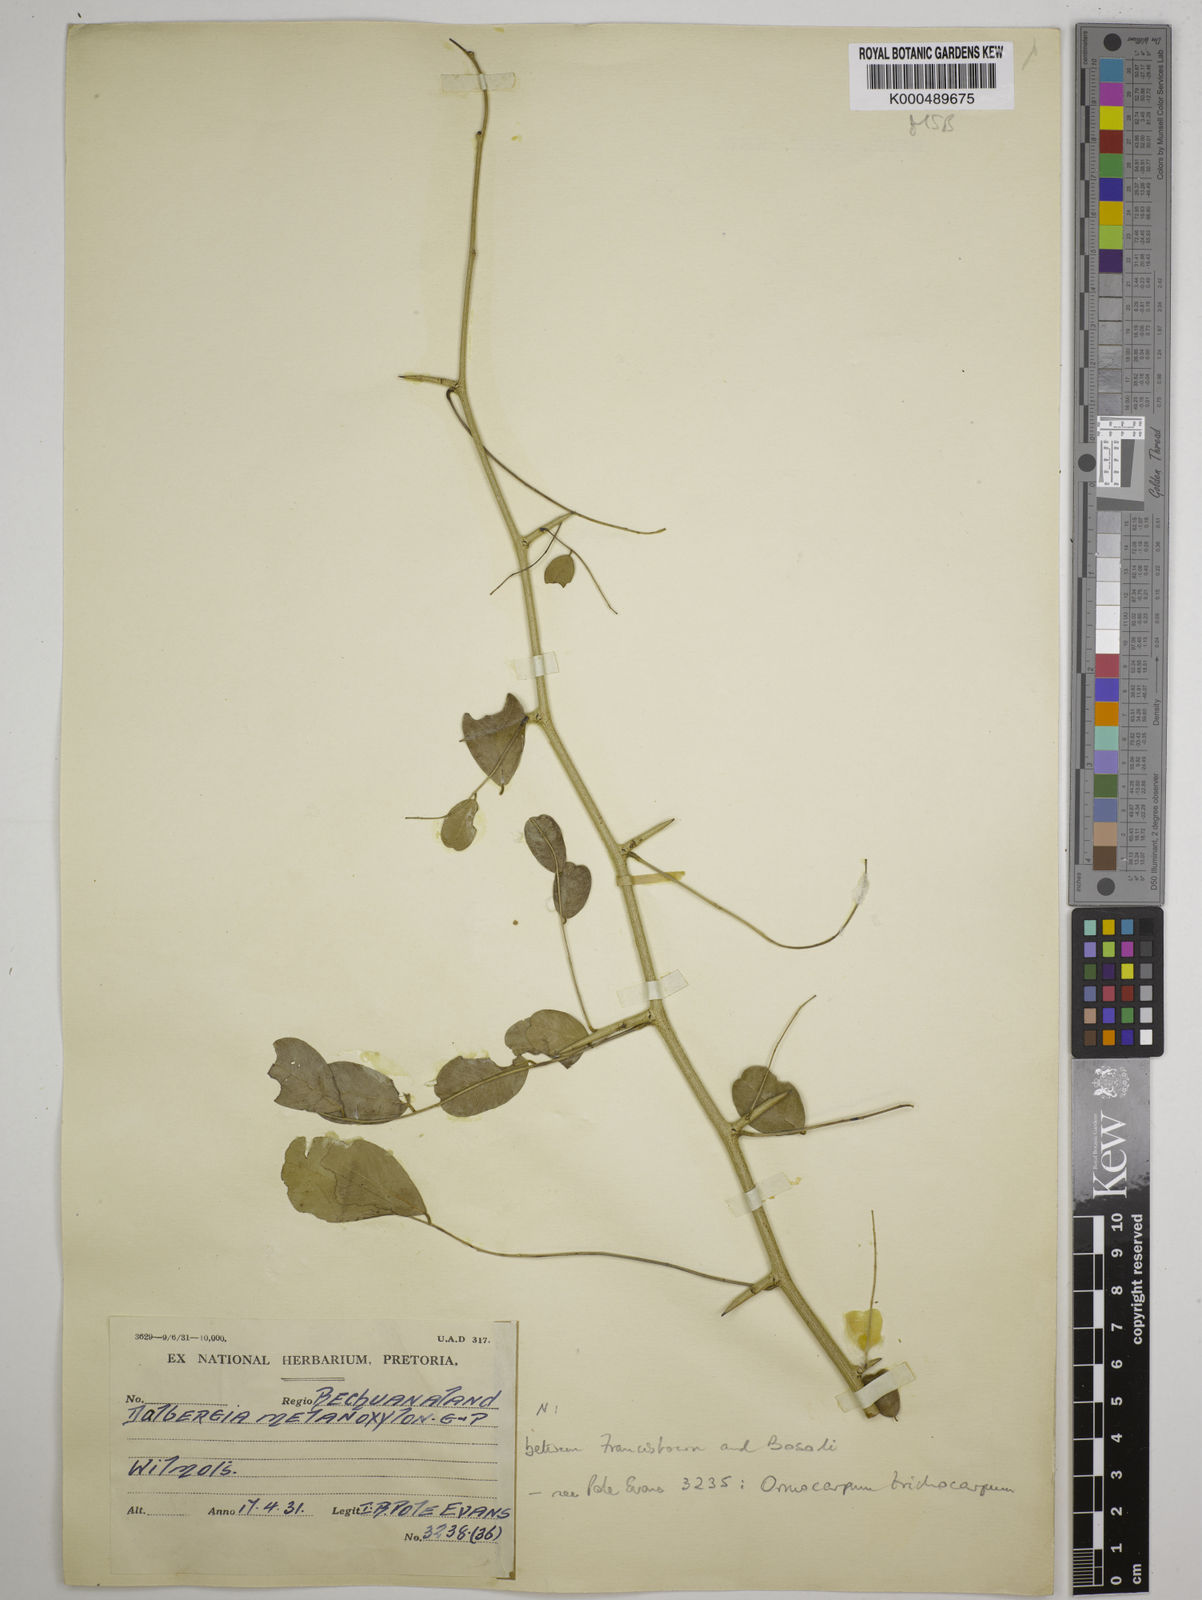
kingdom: Plantae
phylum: Tracheophyta
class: Magnoliopsida
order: Fabales
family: Fabaceae
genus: Dalbergia
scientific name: Dalbergia melanoxylon
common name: African blackwood
